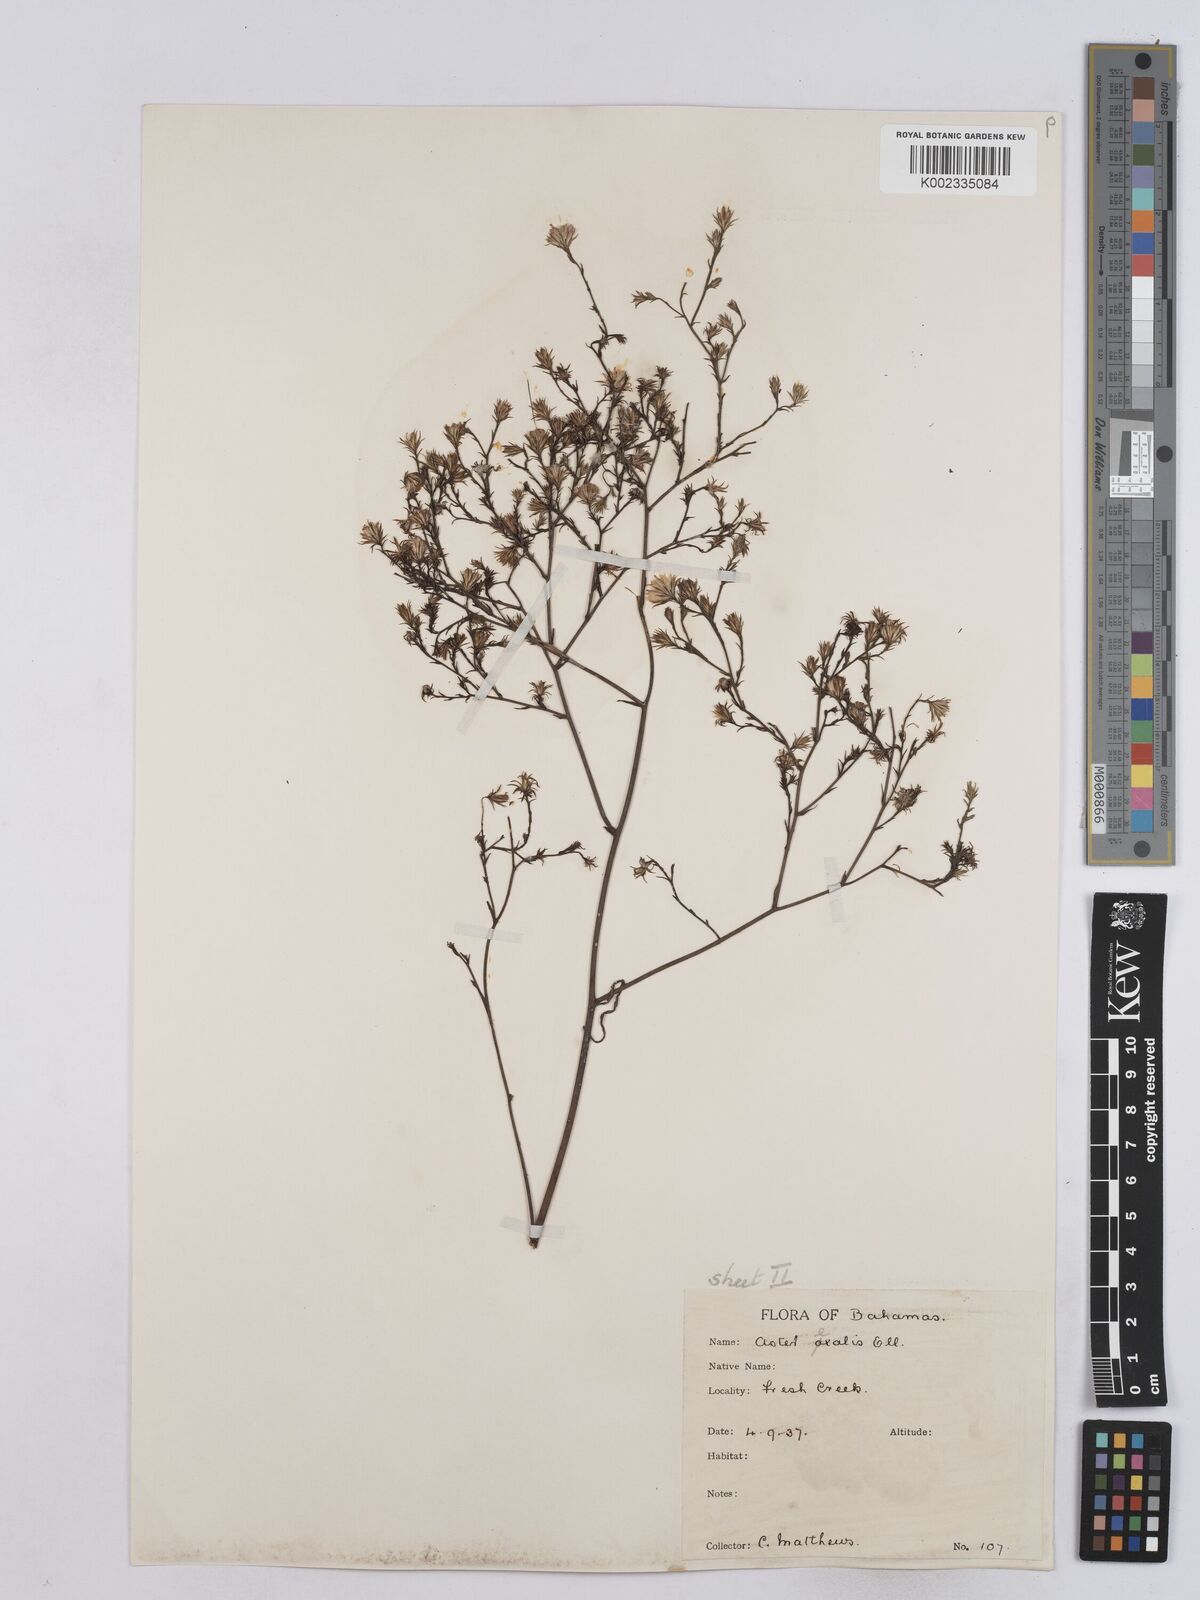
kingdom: Plantae
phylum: Tracheophyta
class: Magnoliopsida
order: Asterales
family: Asteraceae
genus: Symphyotrichum
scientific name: Symphyotrichum expansum
